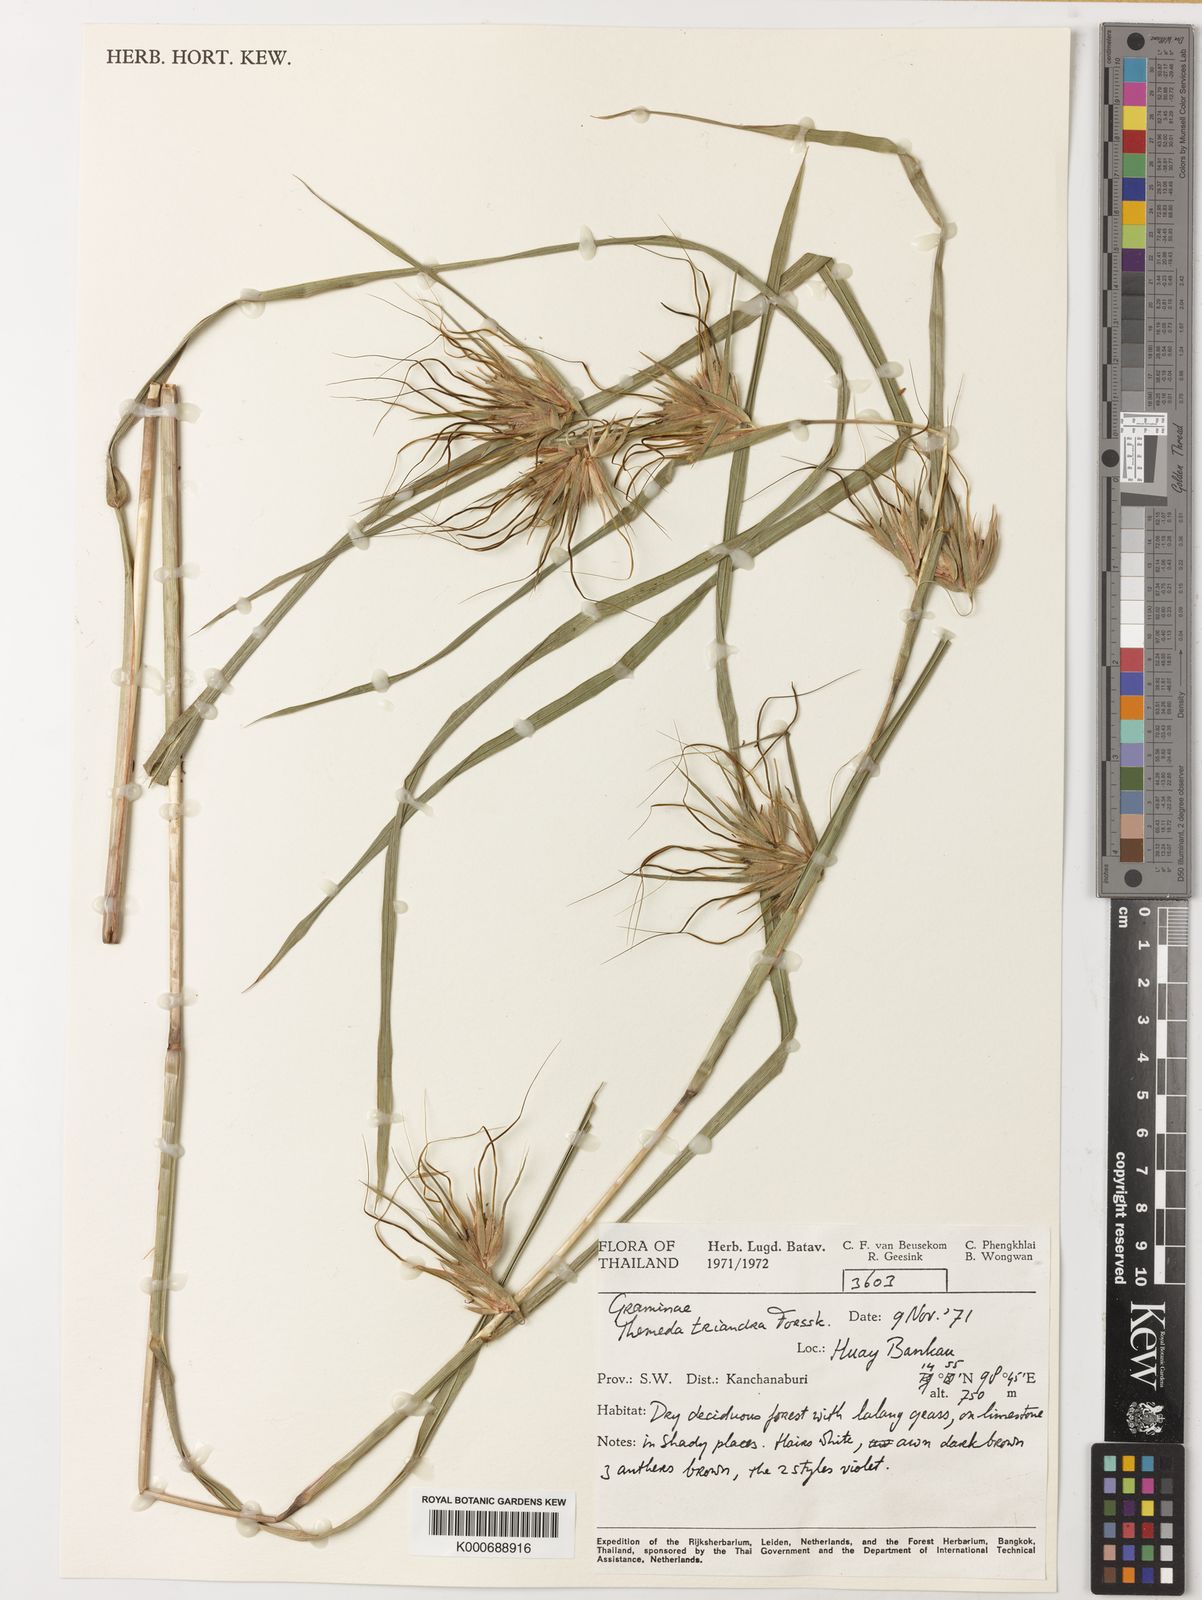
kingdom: Plantae
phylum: Tracheophyta
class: Liliopsida
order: Poales
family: Poaceae
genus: Themeda
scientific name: Themeda arguens
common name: Christmas grass
